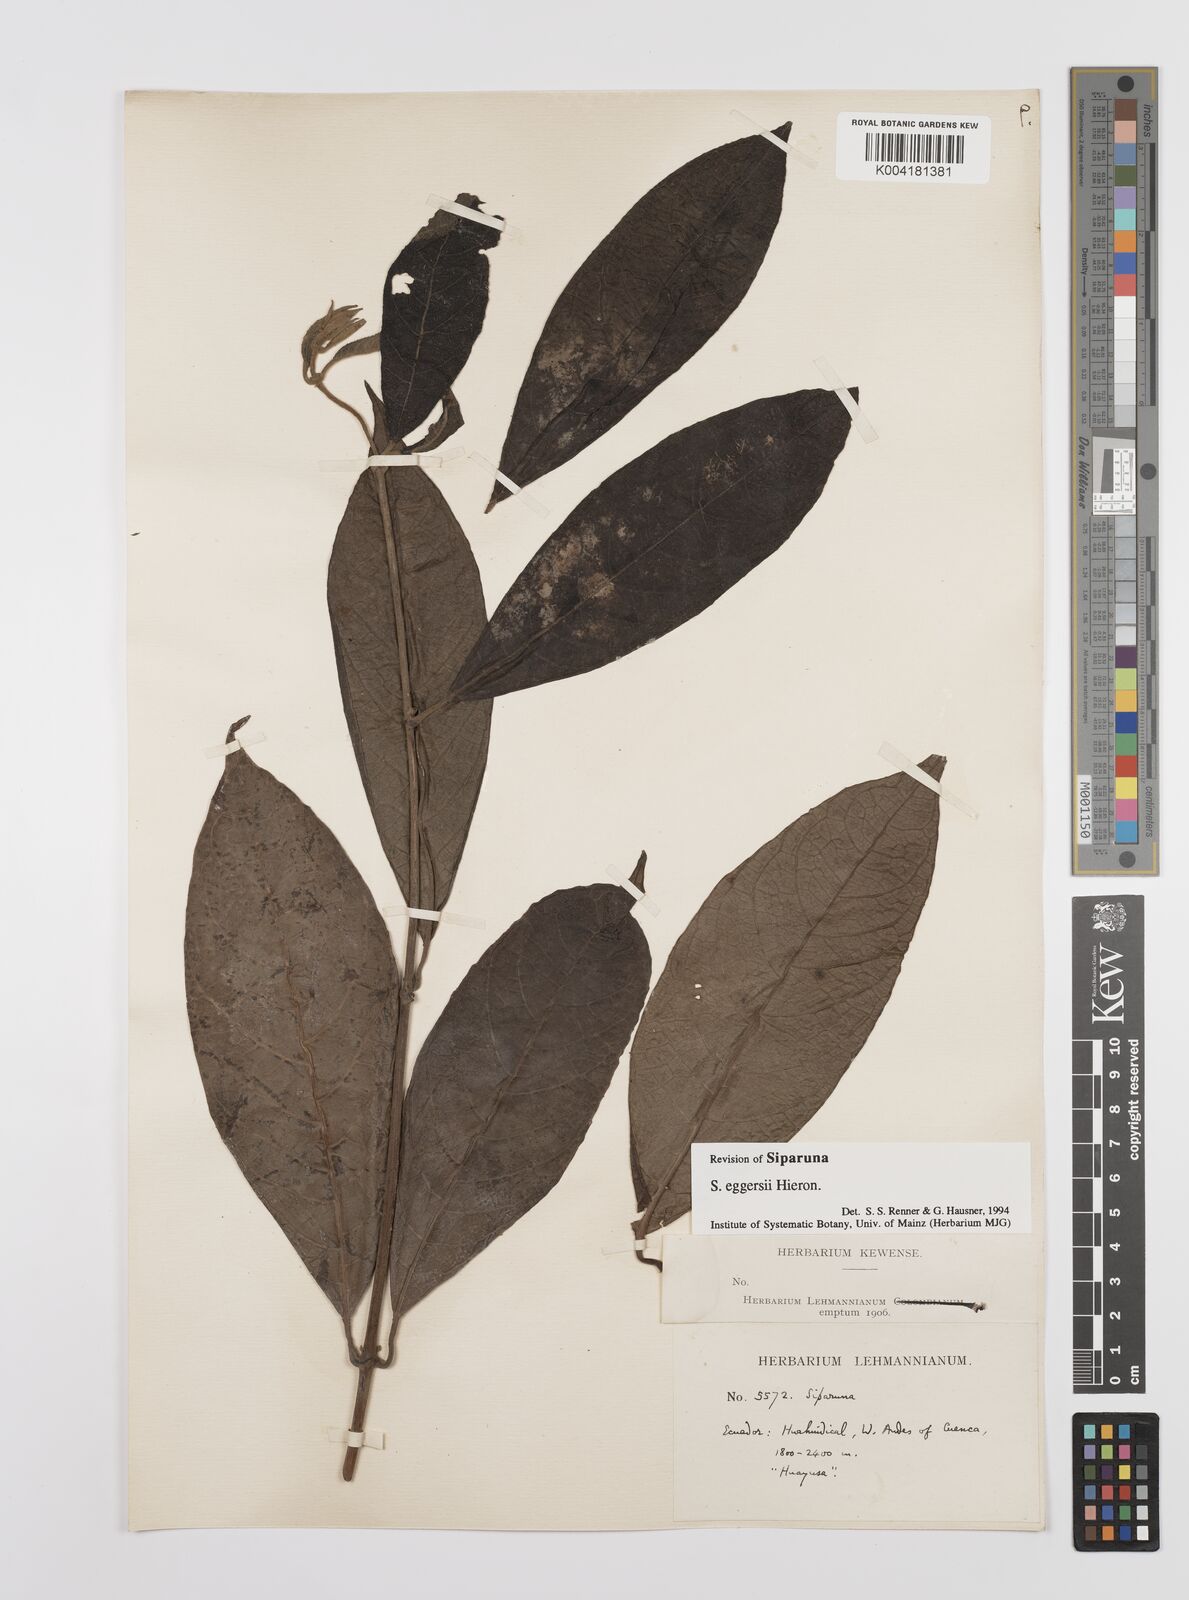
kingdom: Plantae
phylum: Tracheophyta
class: Magnoliopsida
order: Laurales
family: Siparunaceae
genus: Siparuna
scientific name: Siparuna eggersii
